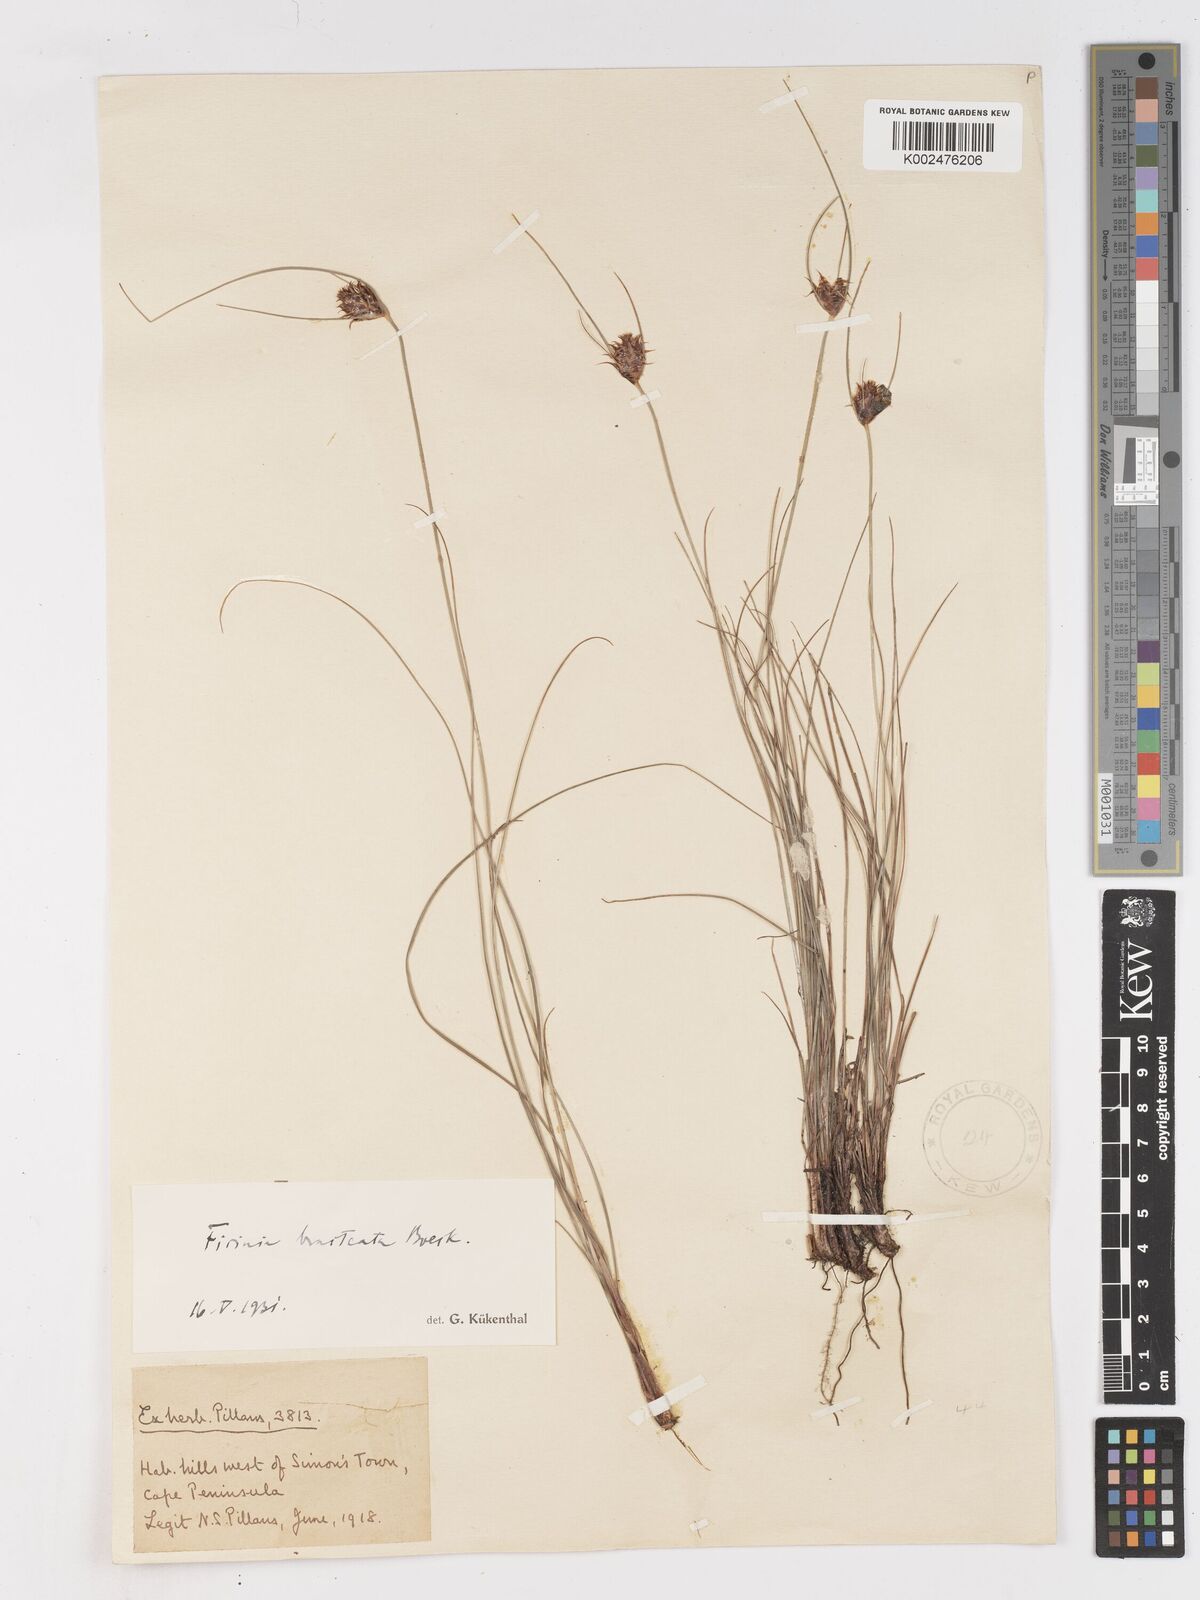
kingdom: Plantae
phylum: Tracheophyta
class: Liliopsida
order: Poales
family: Cyperaceae
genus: Ficinia
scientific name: Ficinia nigrescens
